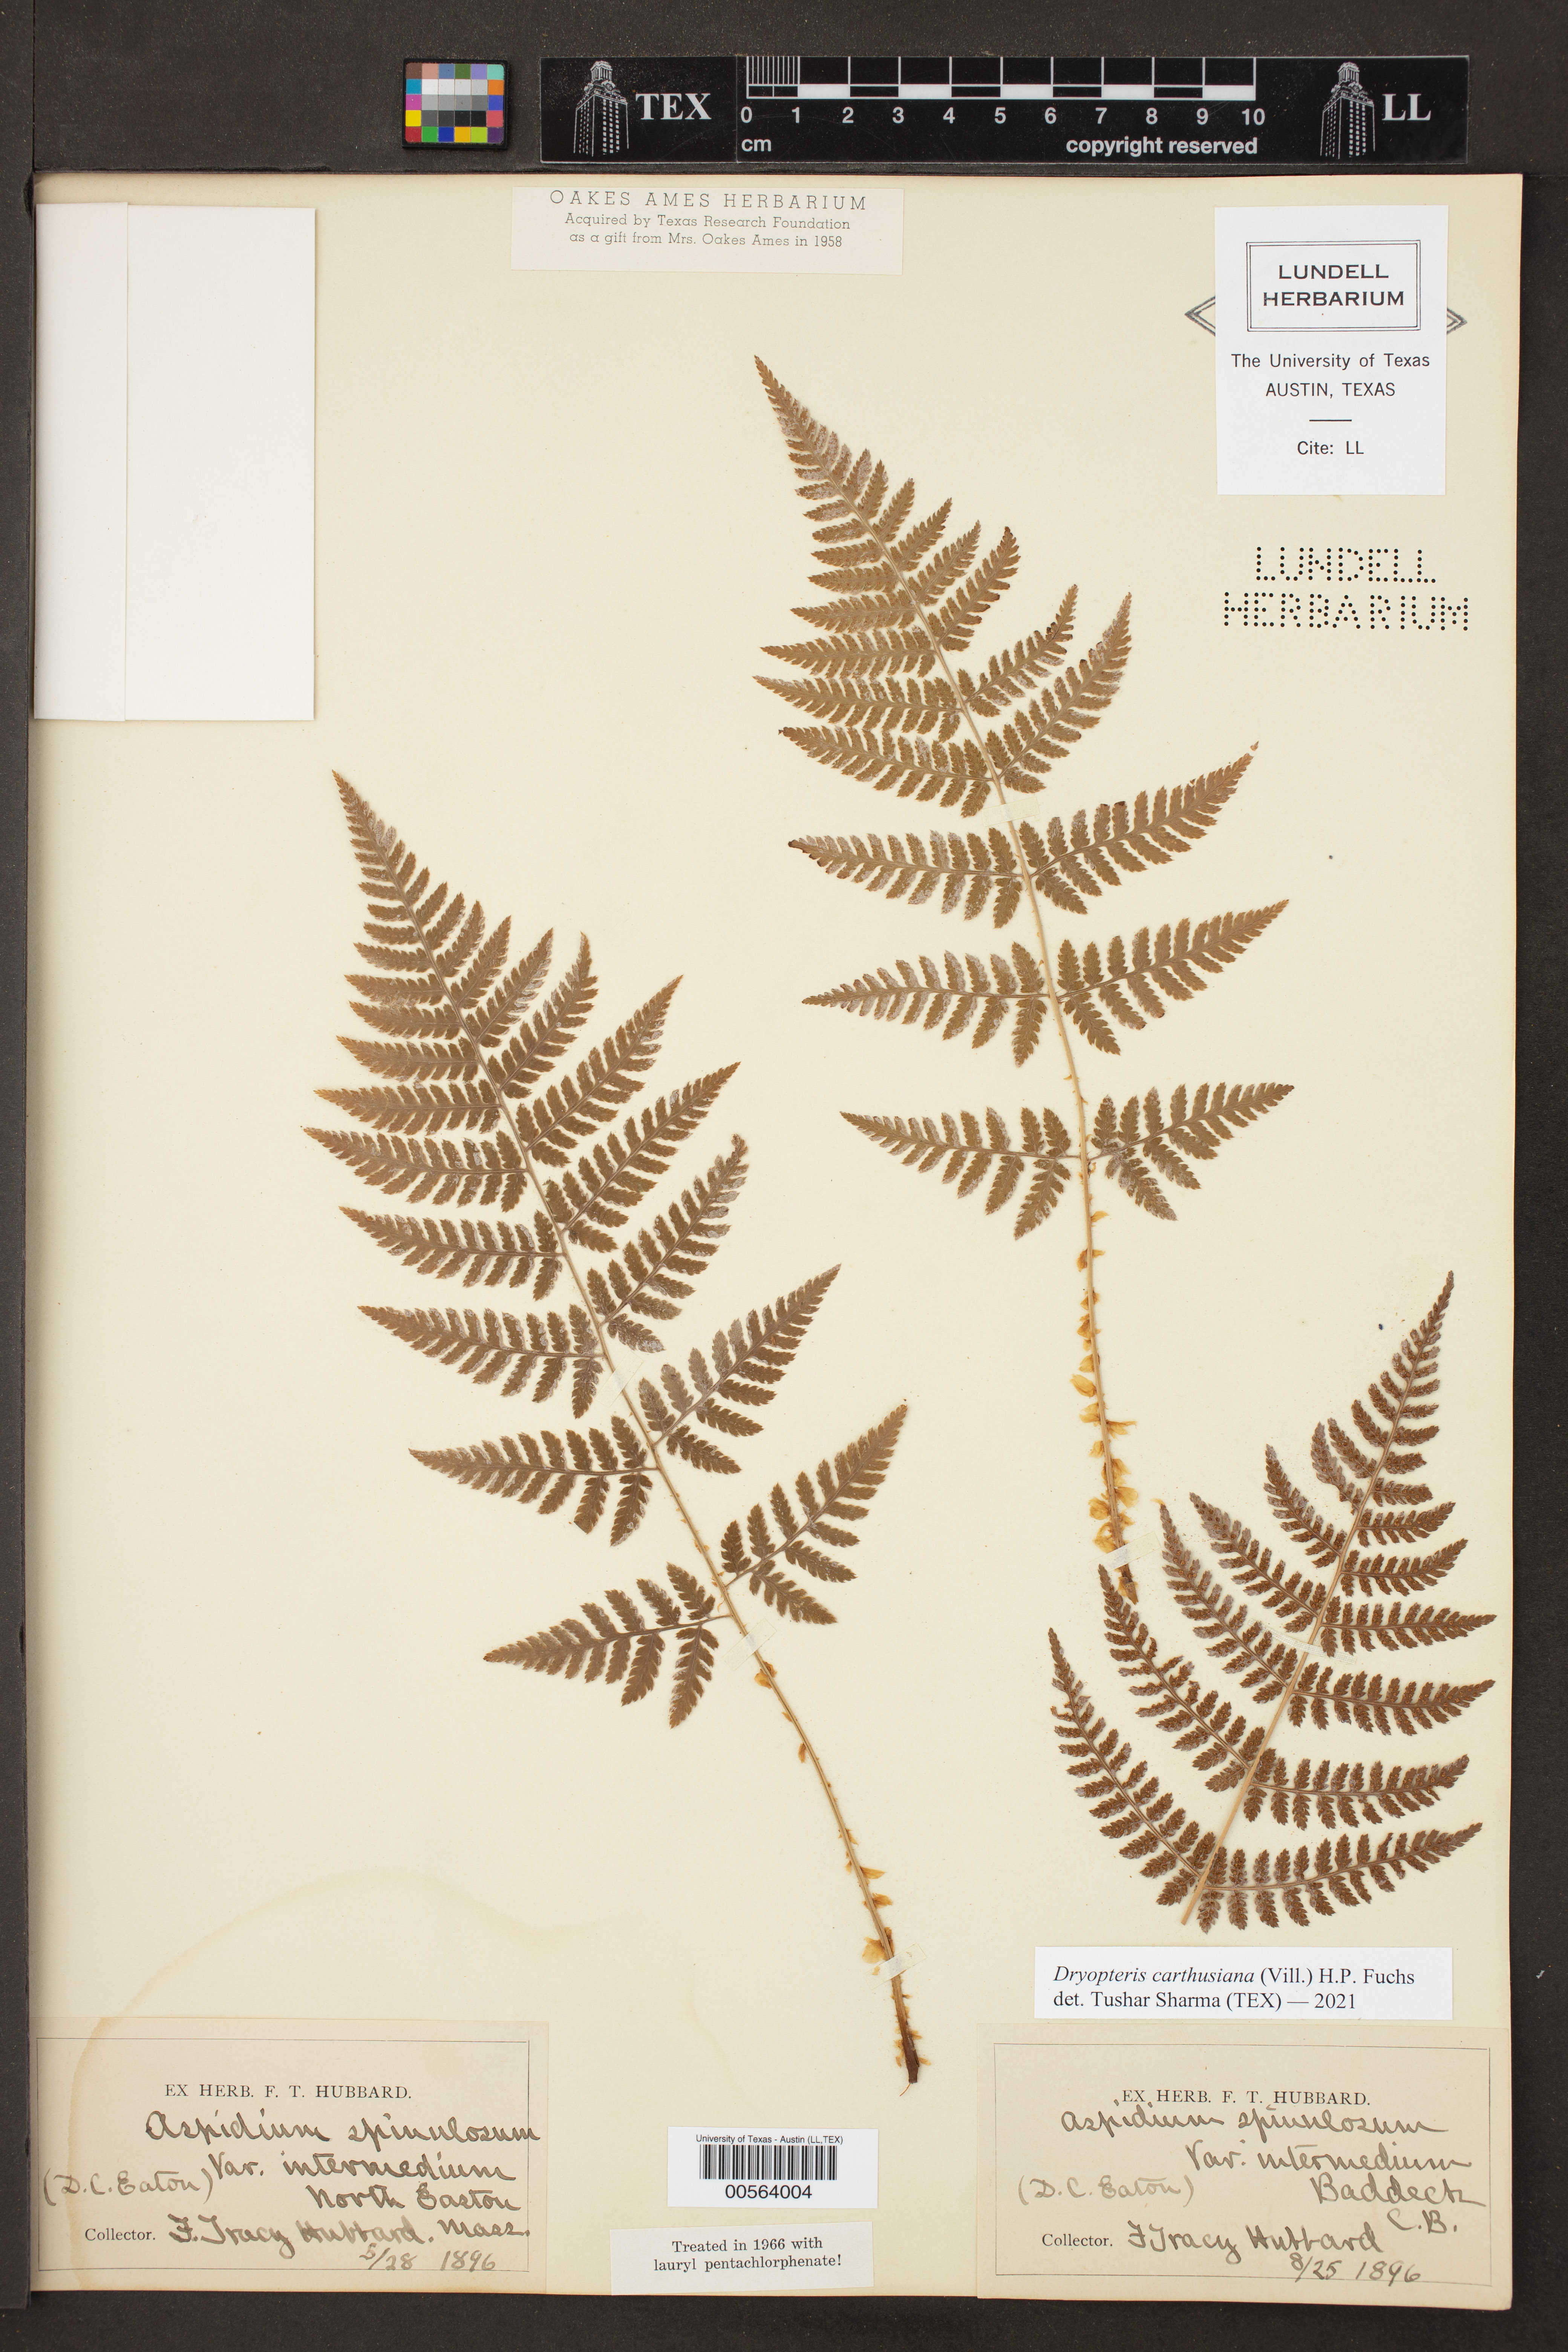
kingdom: Plantae
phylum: Tracheophyta
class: Polypodiopsida
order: Polypodiales
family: Dryopteridaceae
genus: Dryopteris
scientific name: Dryopteris carthusiana
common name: Narrow buckler-fern
